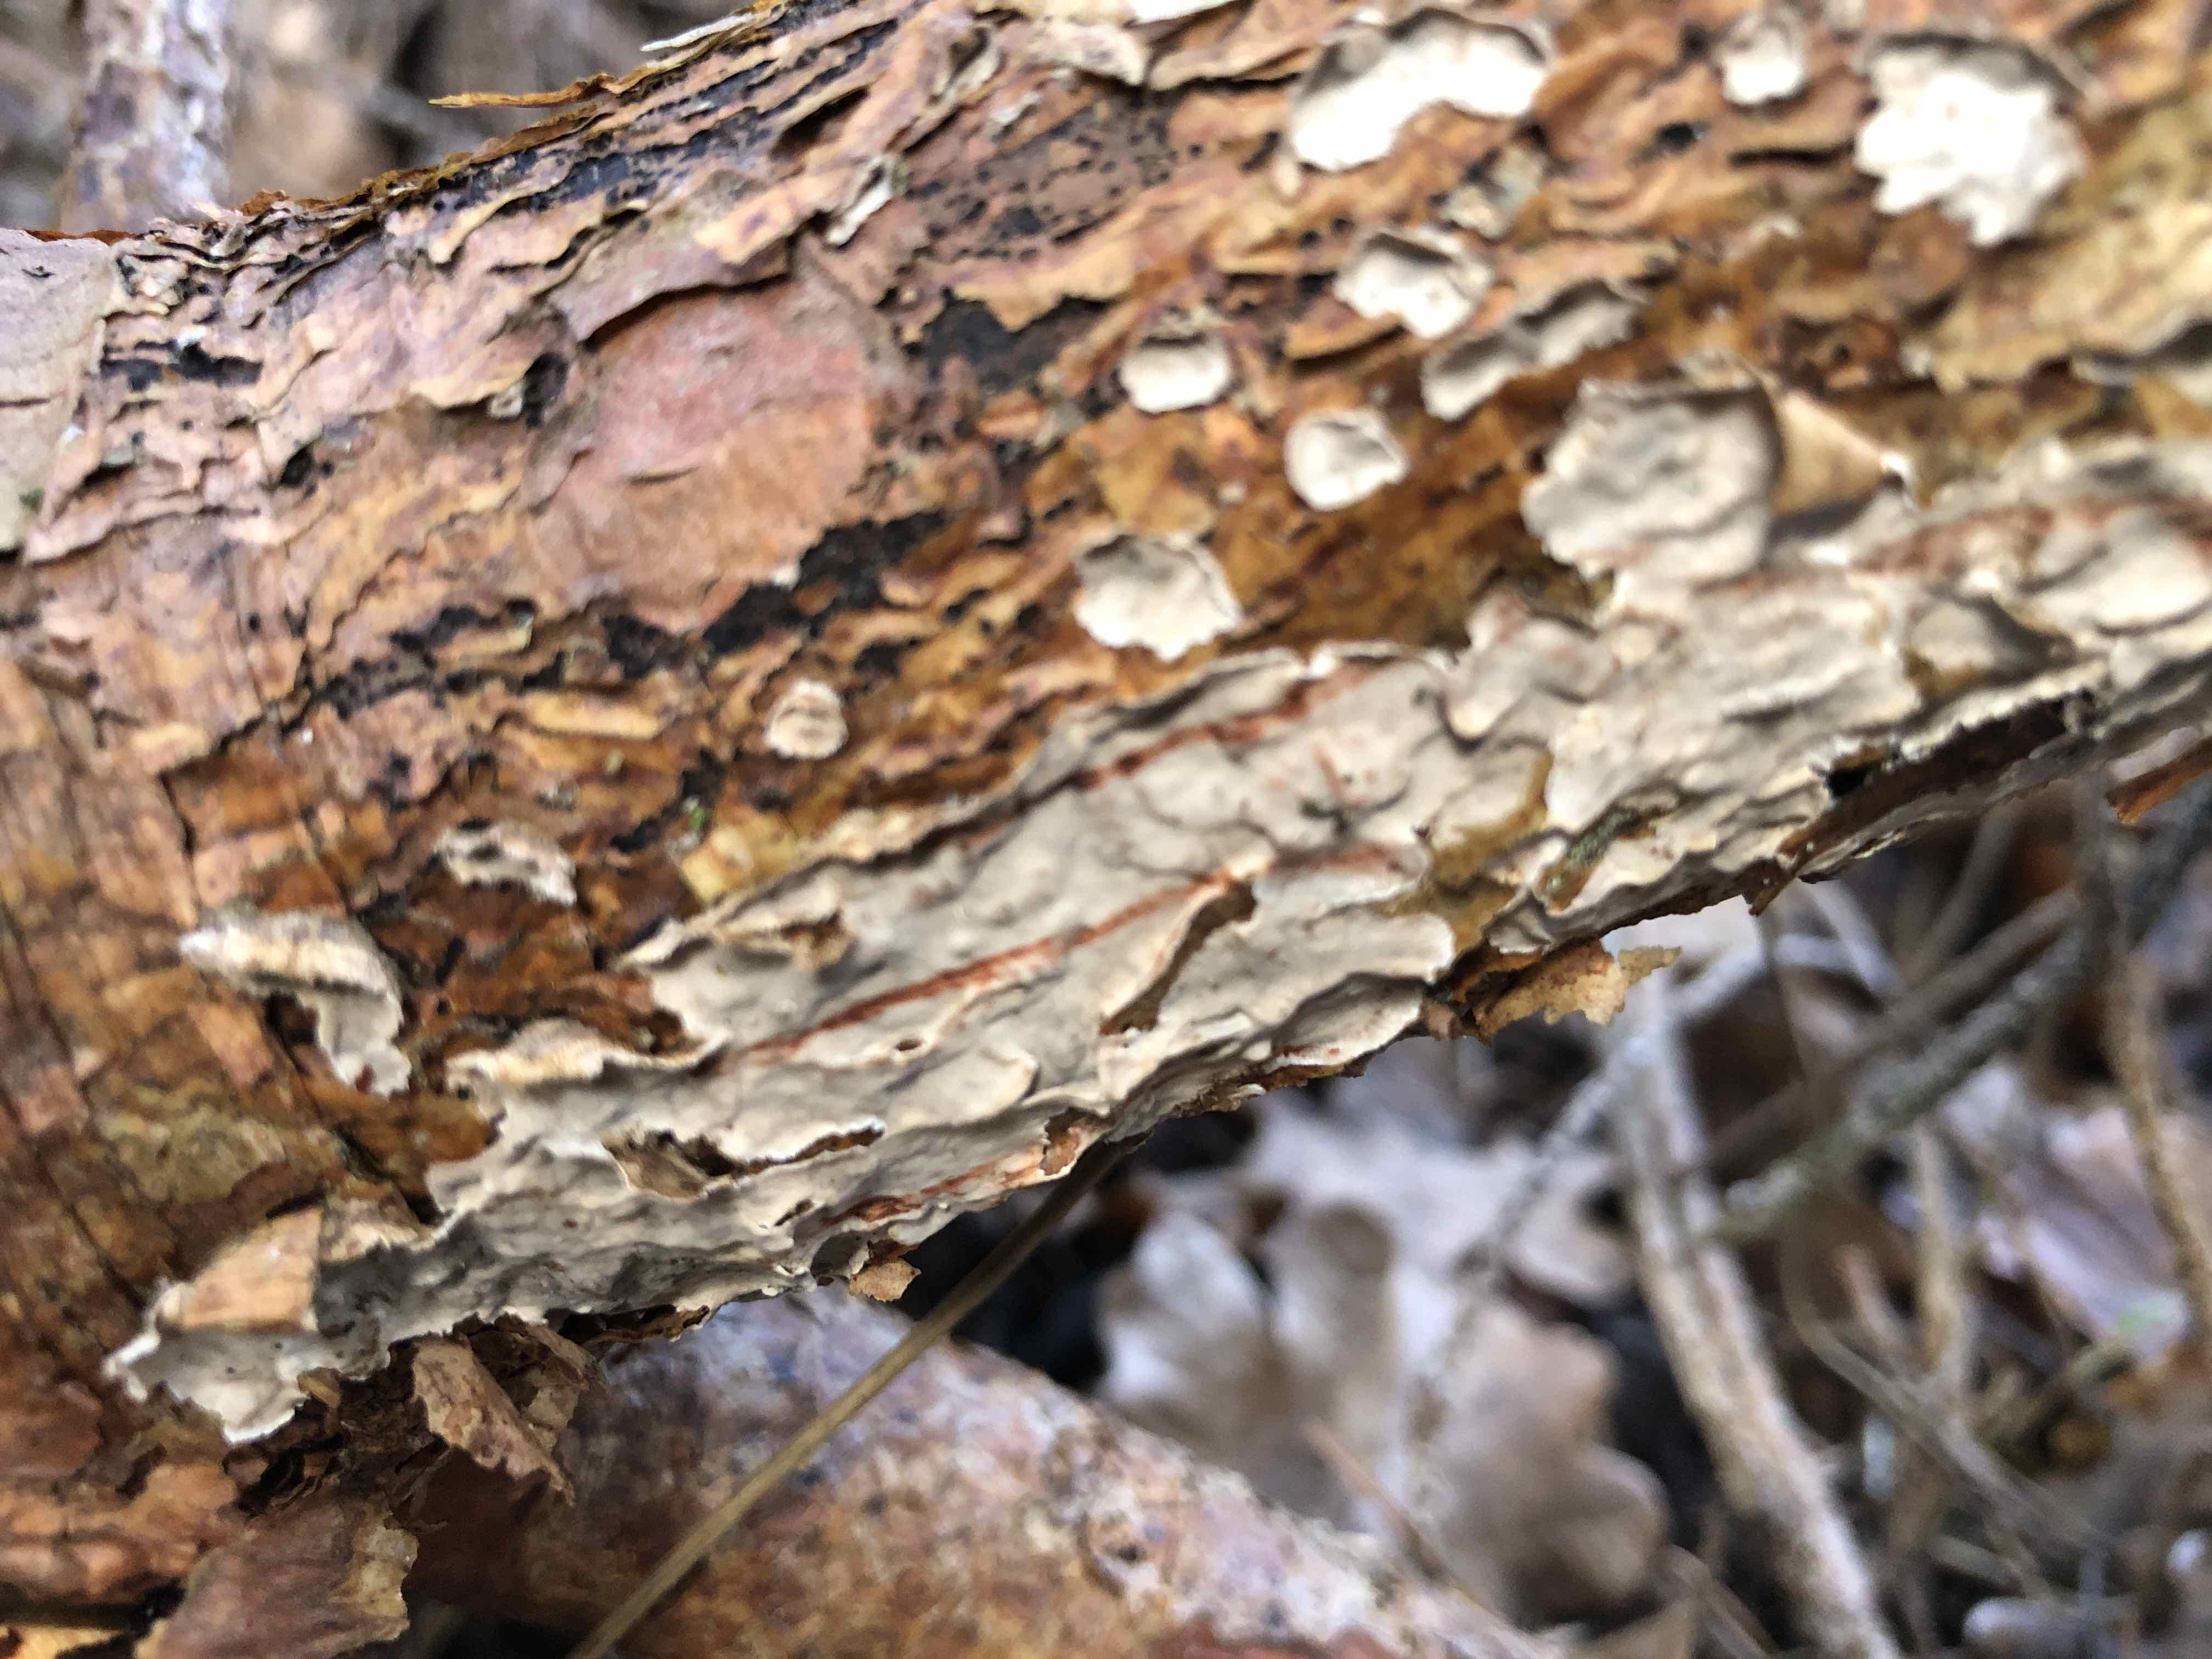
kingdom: Fungi
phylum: Basidiomycota
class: Agaricomycetes
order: Russulales
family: Stereaceae
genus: Stereum
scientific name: Stereum sanguinolentum
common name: blødende lædersvamp
